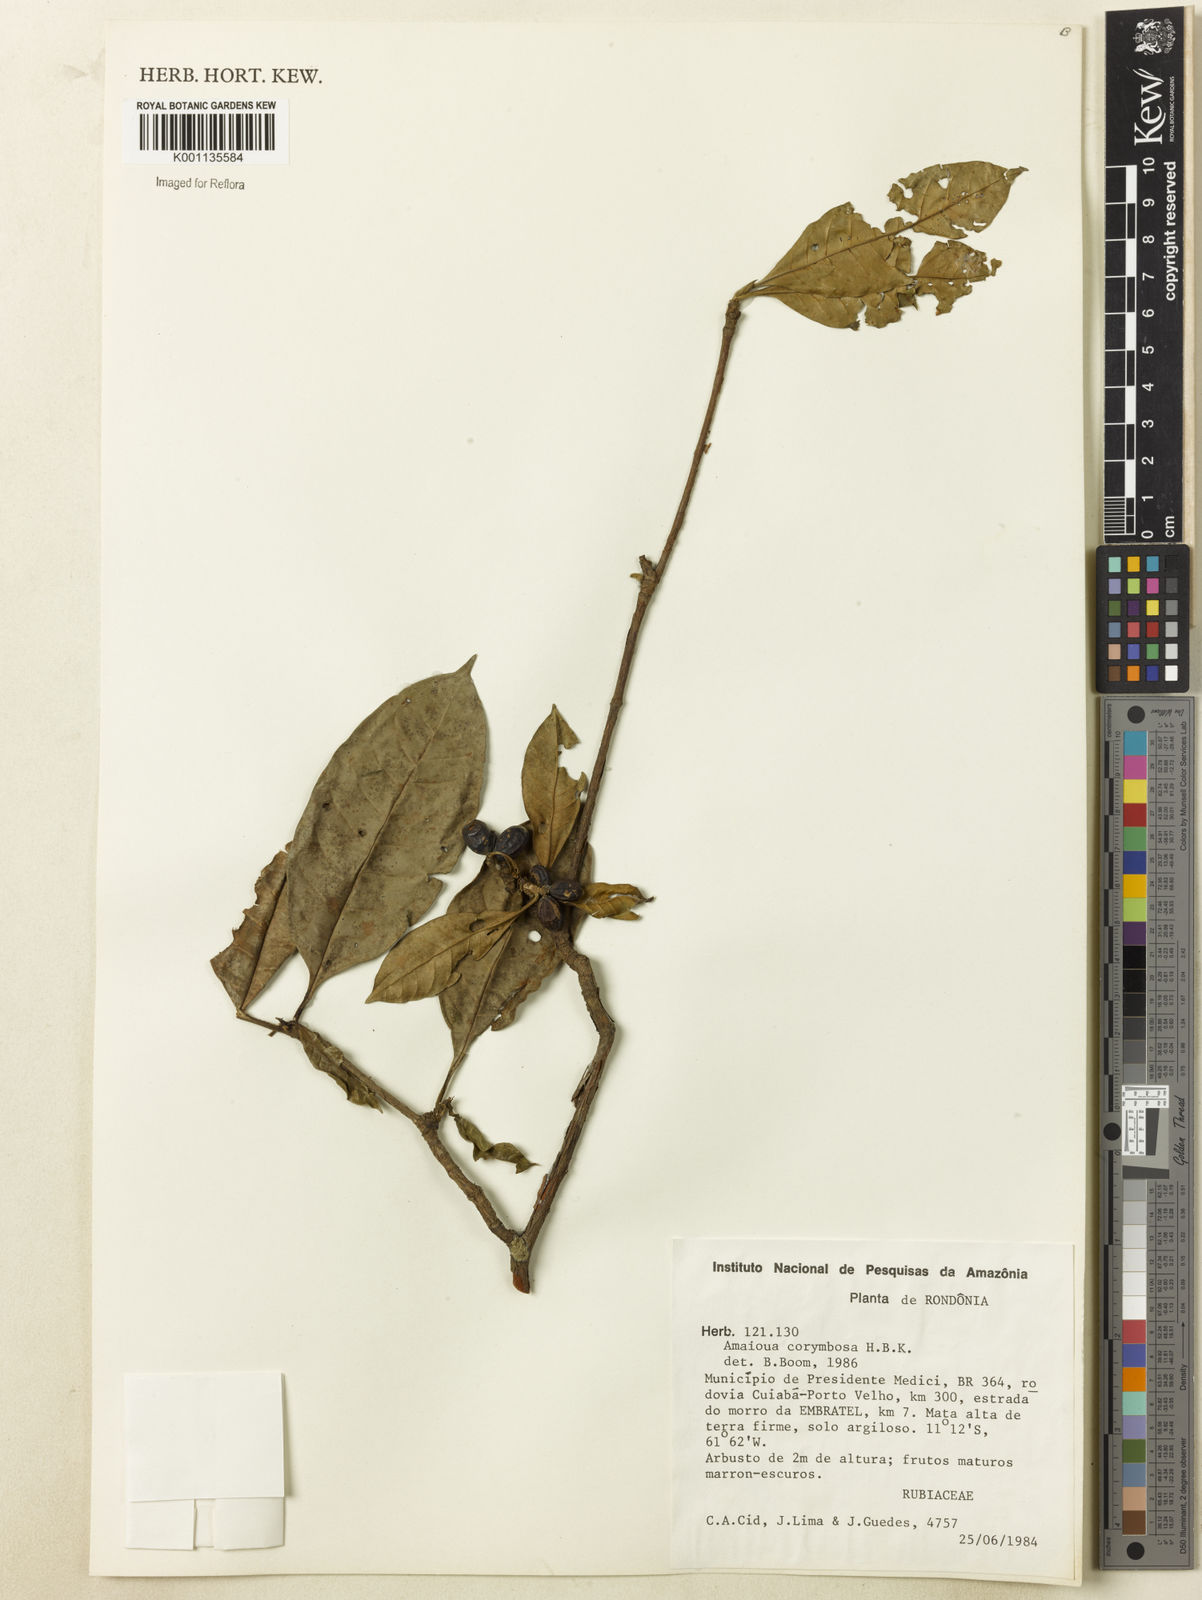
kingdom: Plantae
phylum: Tracheophyta
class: Magnoliopsida
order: Gentianales
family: Rubiaceae
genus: Amaioua
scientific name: Amaioua glomerulata
